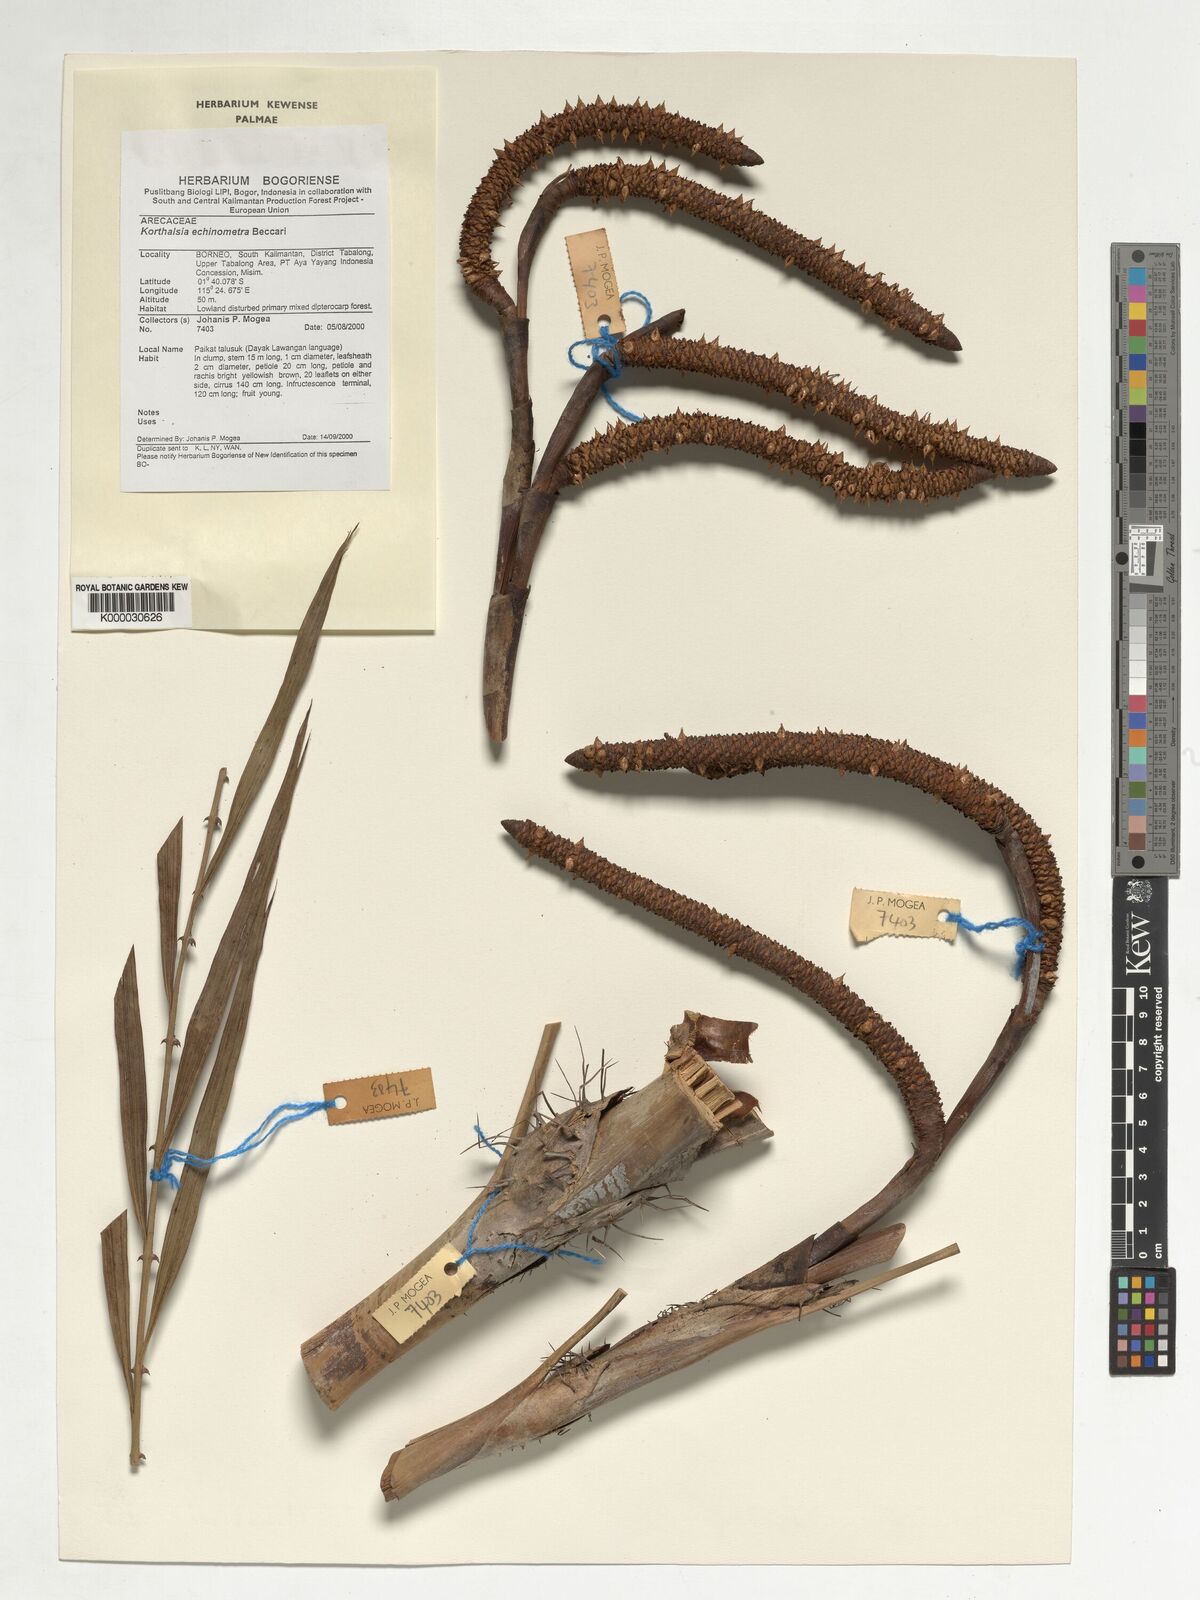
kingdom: Plantae
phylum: Tracheophyta
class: Liliopsida
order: Arecales
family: Arecaceae
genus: Korthalsia
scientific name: Korthalsia echinometra
